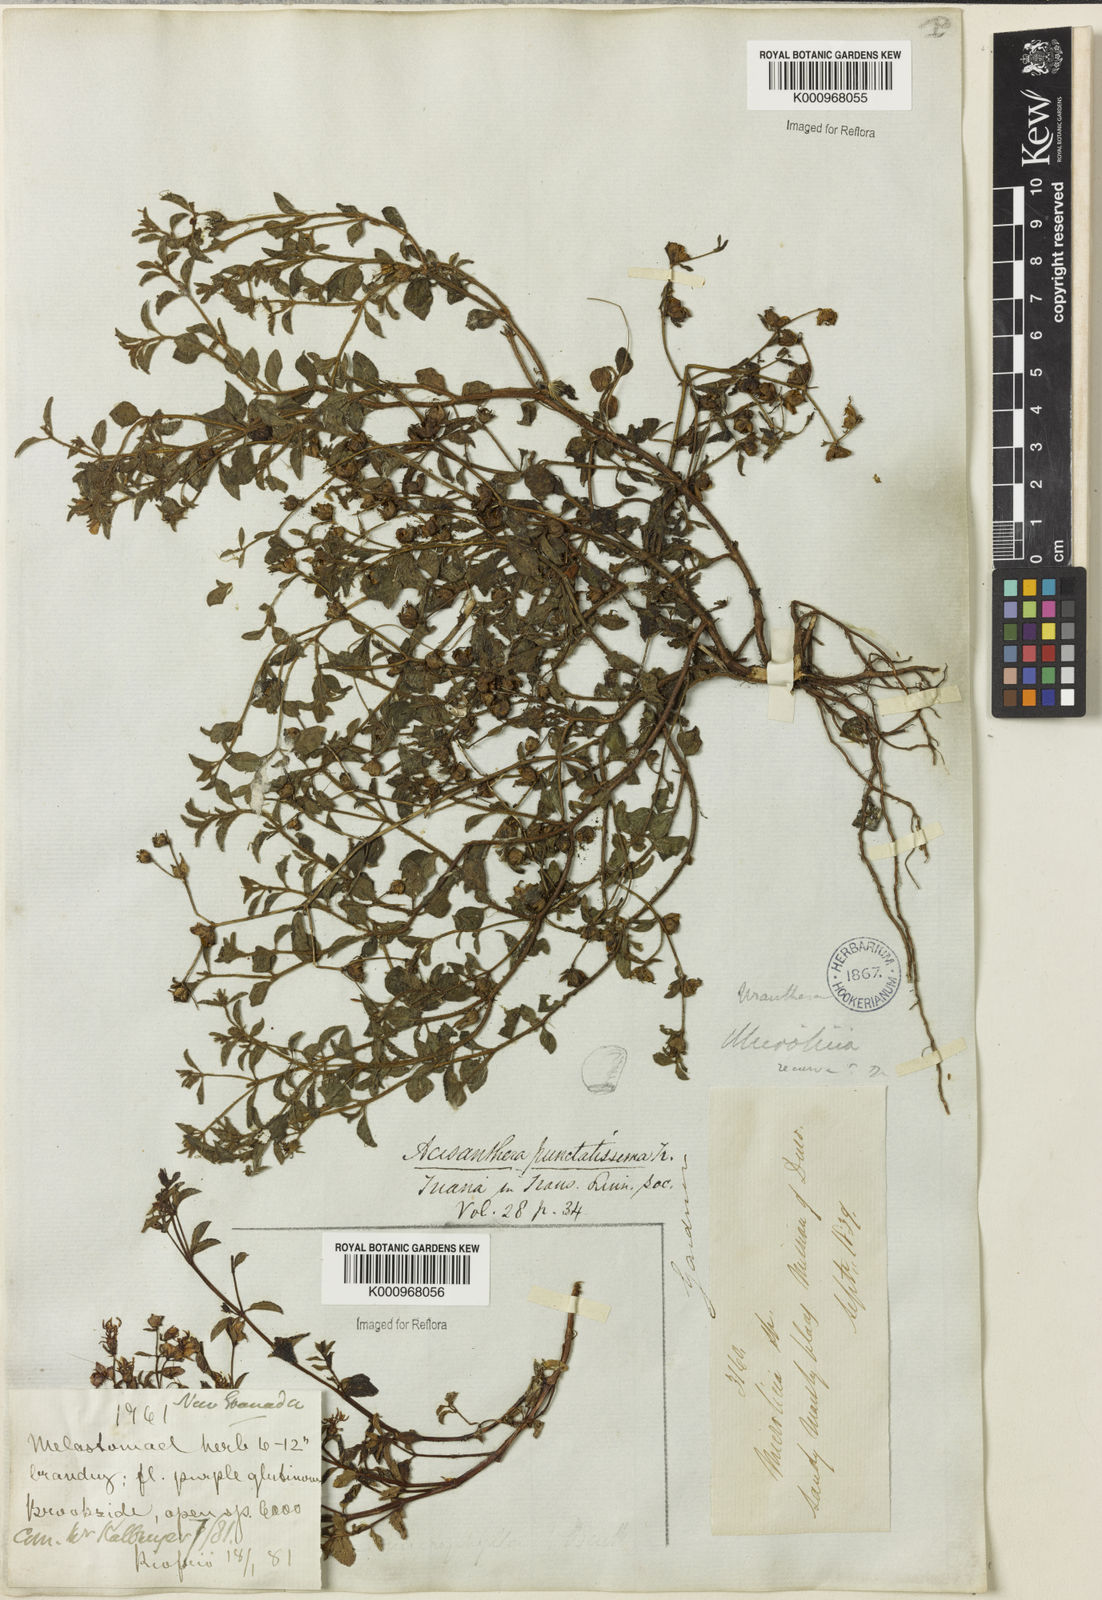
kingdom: Plantae
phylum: Tracheophyta
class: Magnoliopsida
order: Myrtales
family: Melastomataceae
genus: Acisanthera
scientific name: Acisanthera
